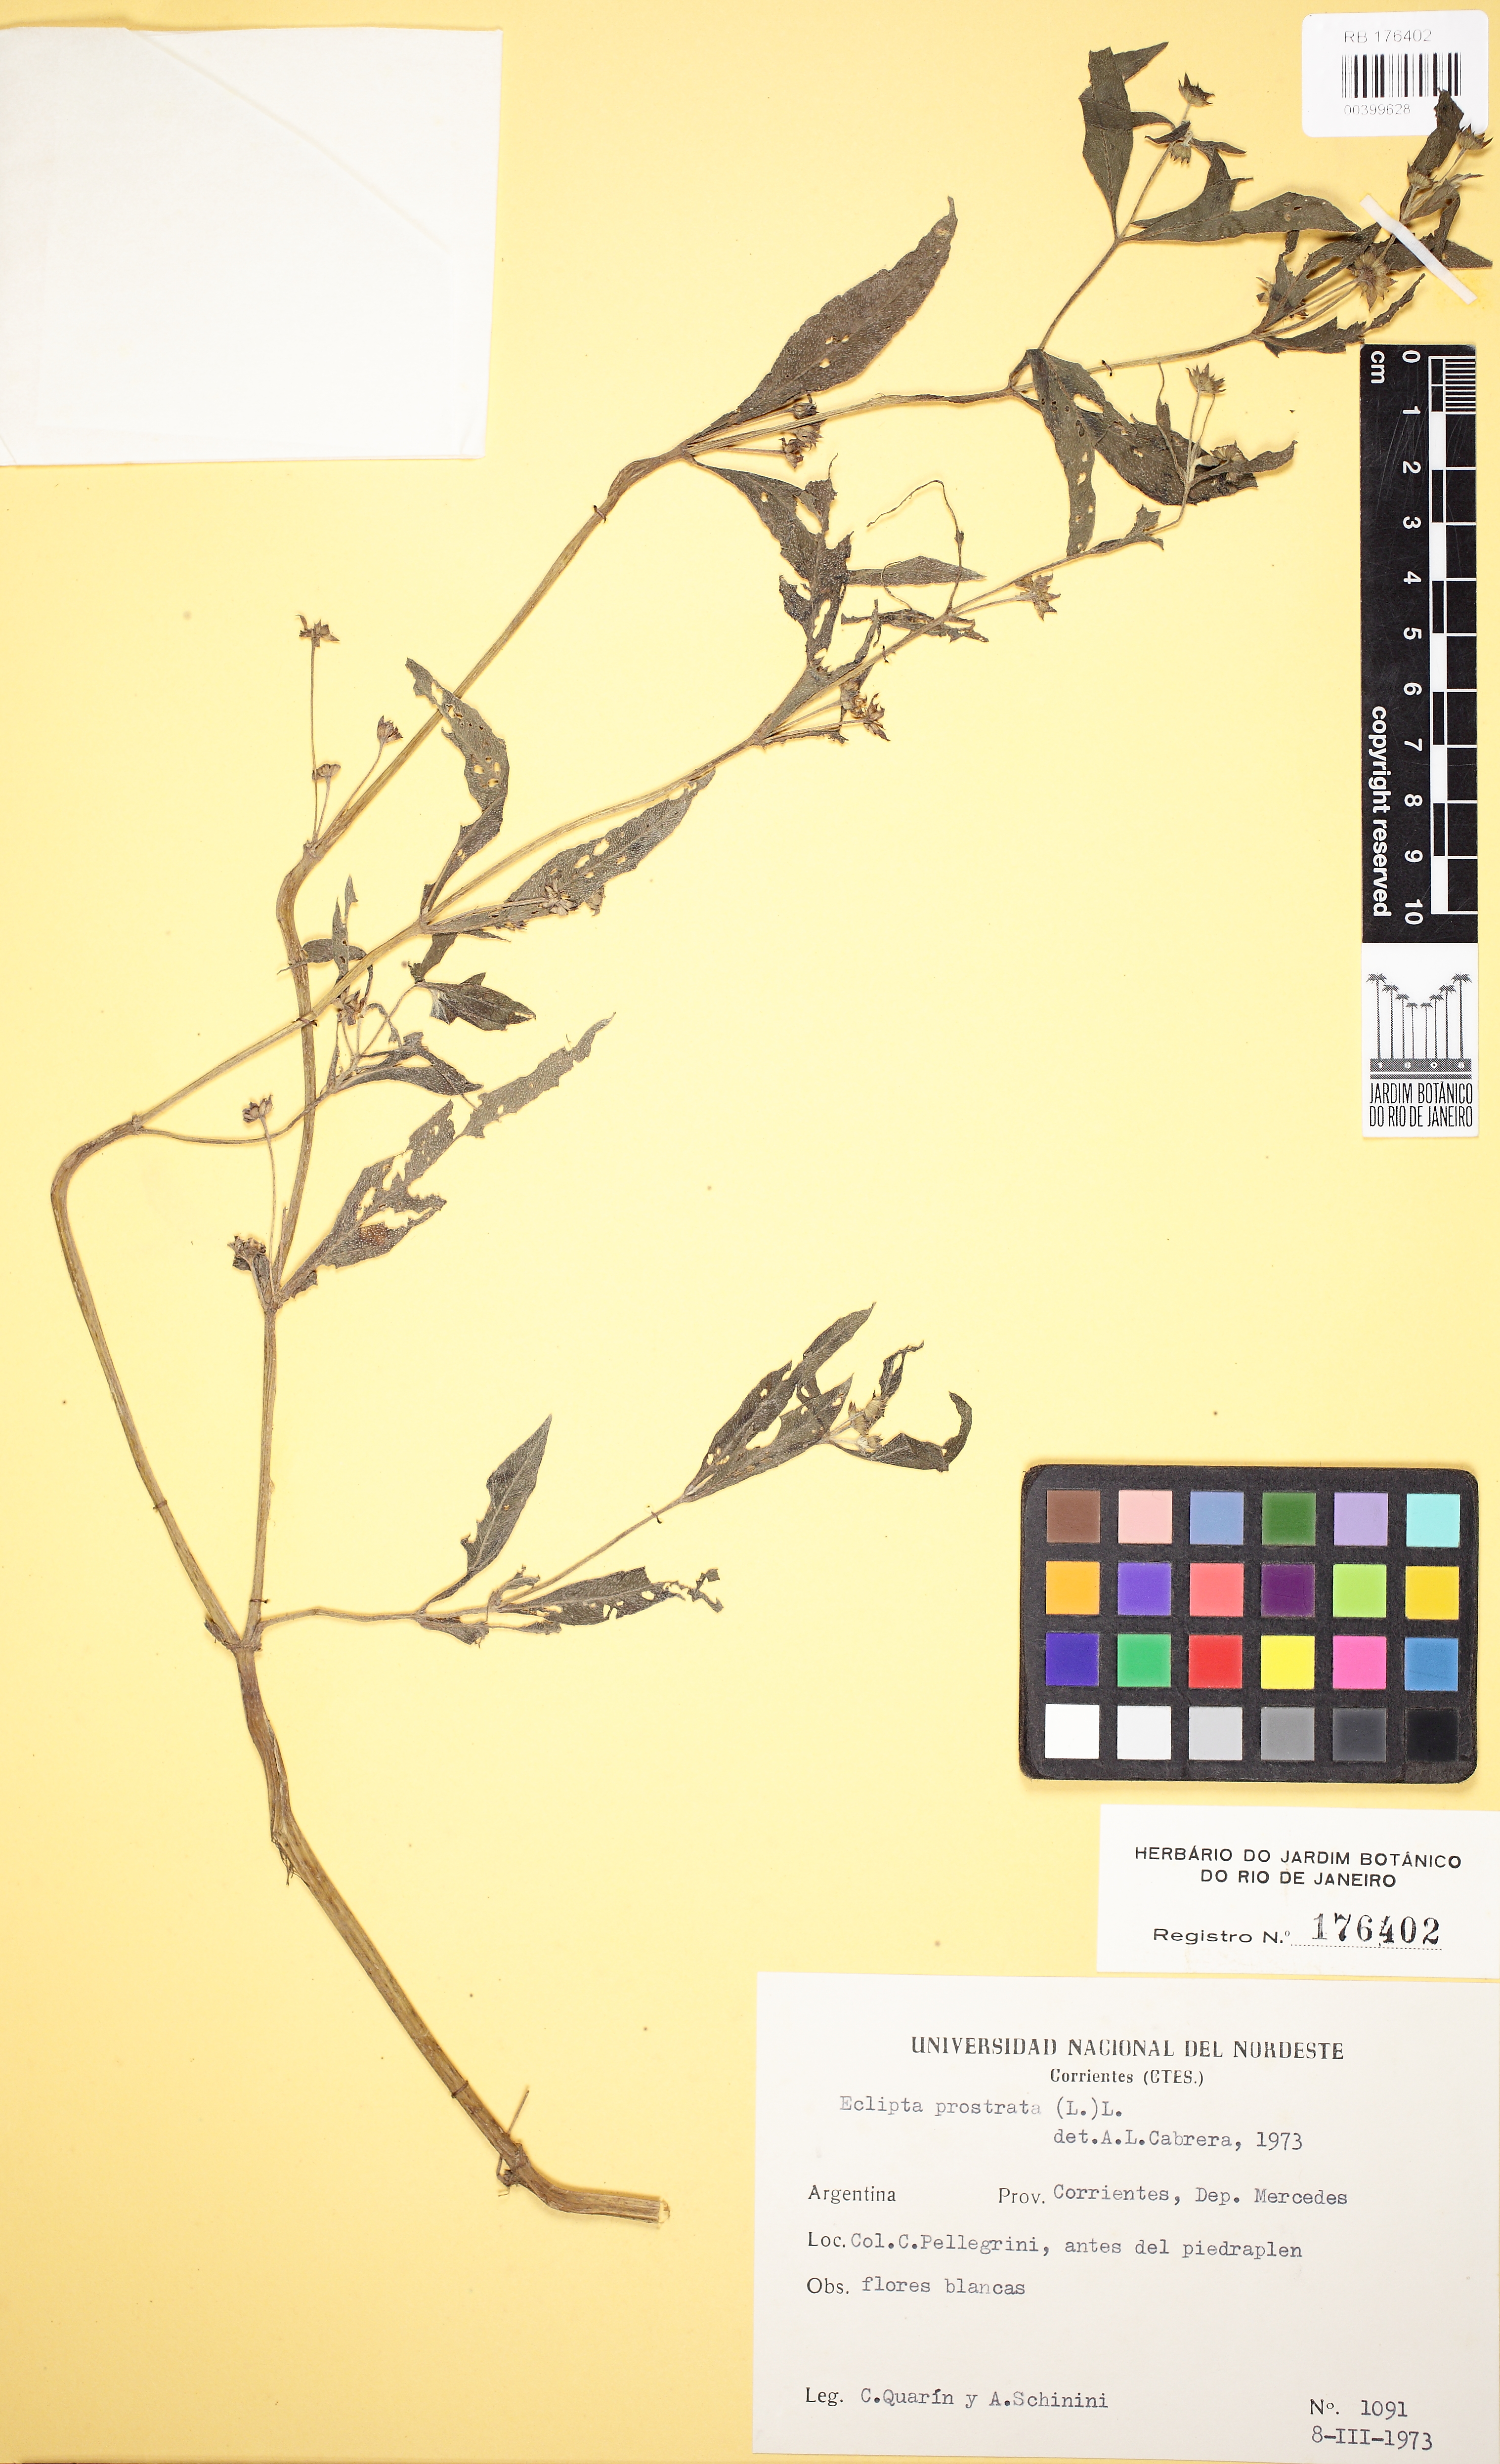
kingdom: Plantae
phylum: Tracheophyta
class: Magnoliopsida
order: Asterales
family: Asteraceae
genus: Eclipta
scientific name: Eclipta prostrata
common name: False daisy
